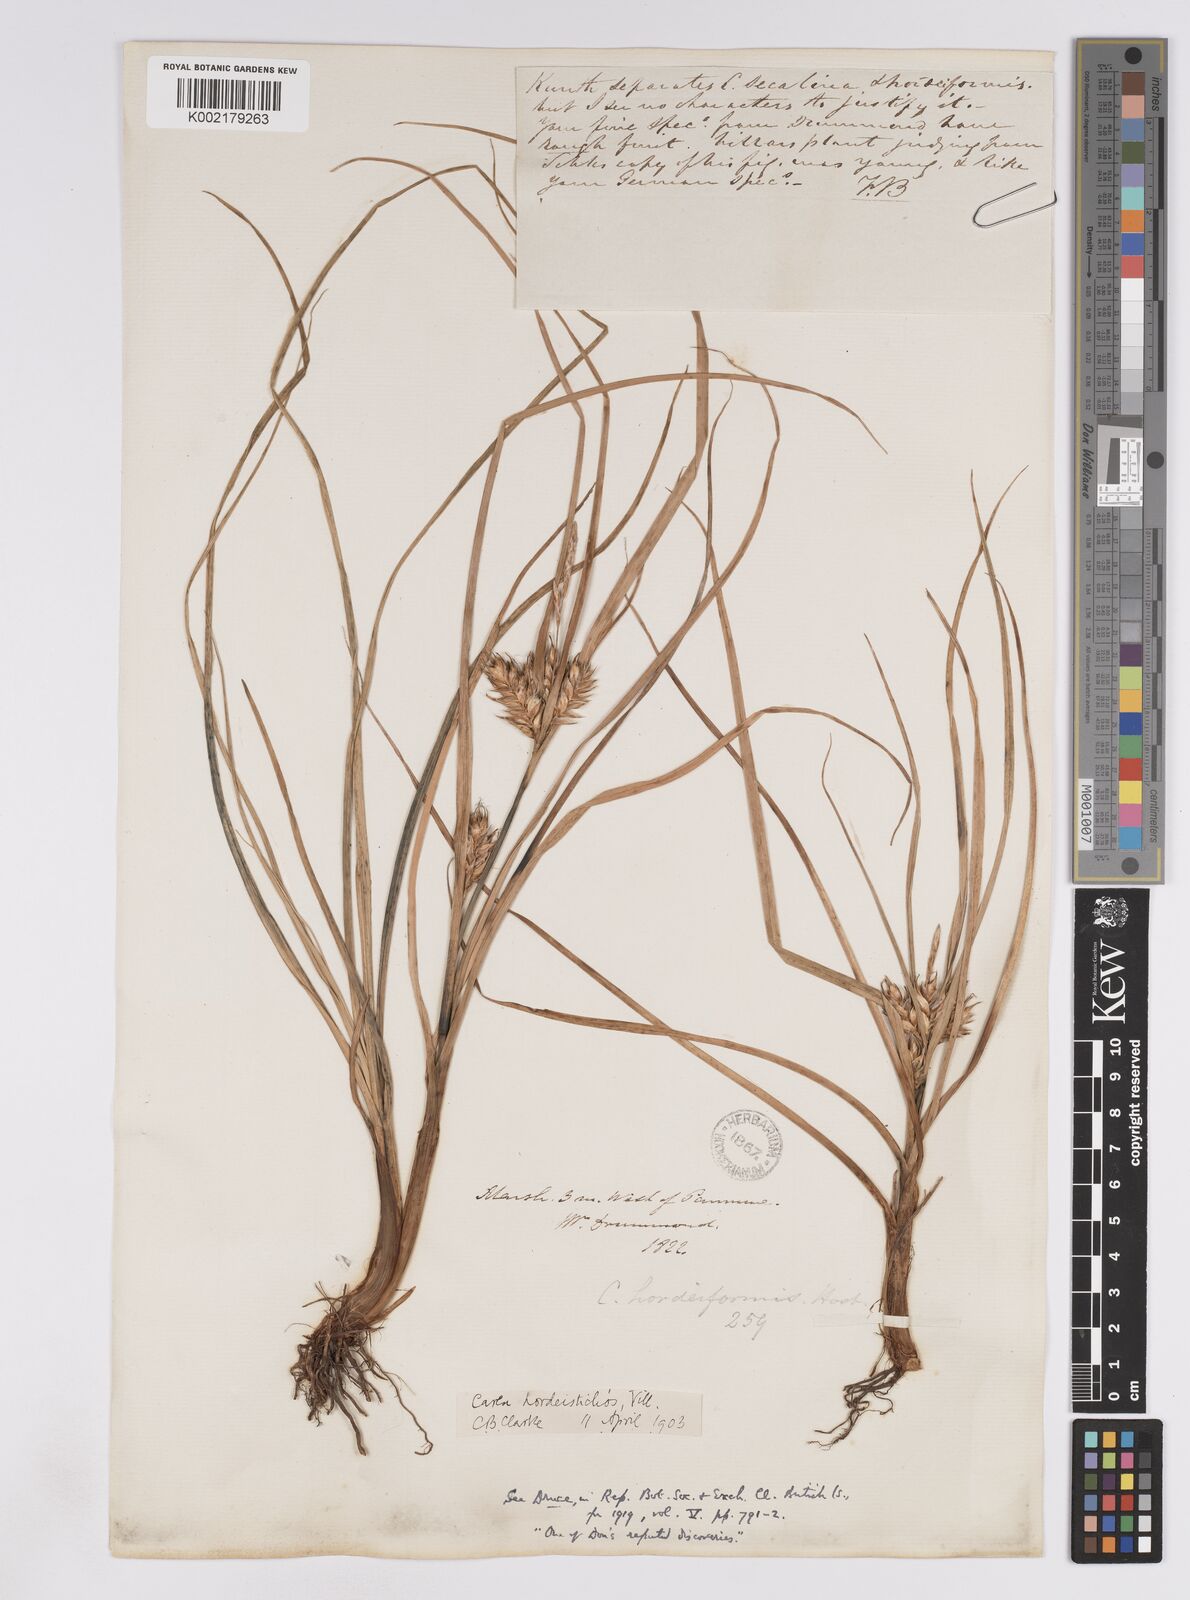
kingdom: Plantae
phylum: Tracheophyta
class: Liliopsida
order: Poales
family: Cyperaceae
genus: Carex
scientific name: Carex hordeistichos
